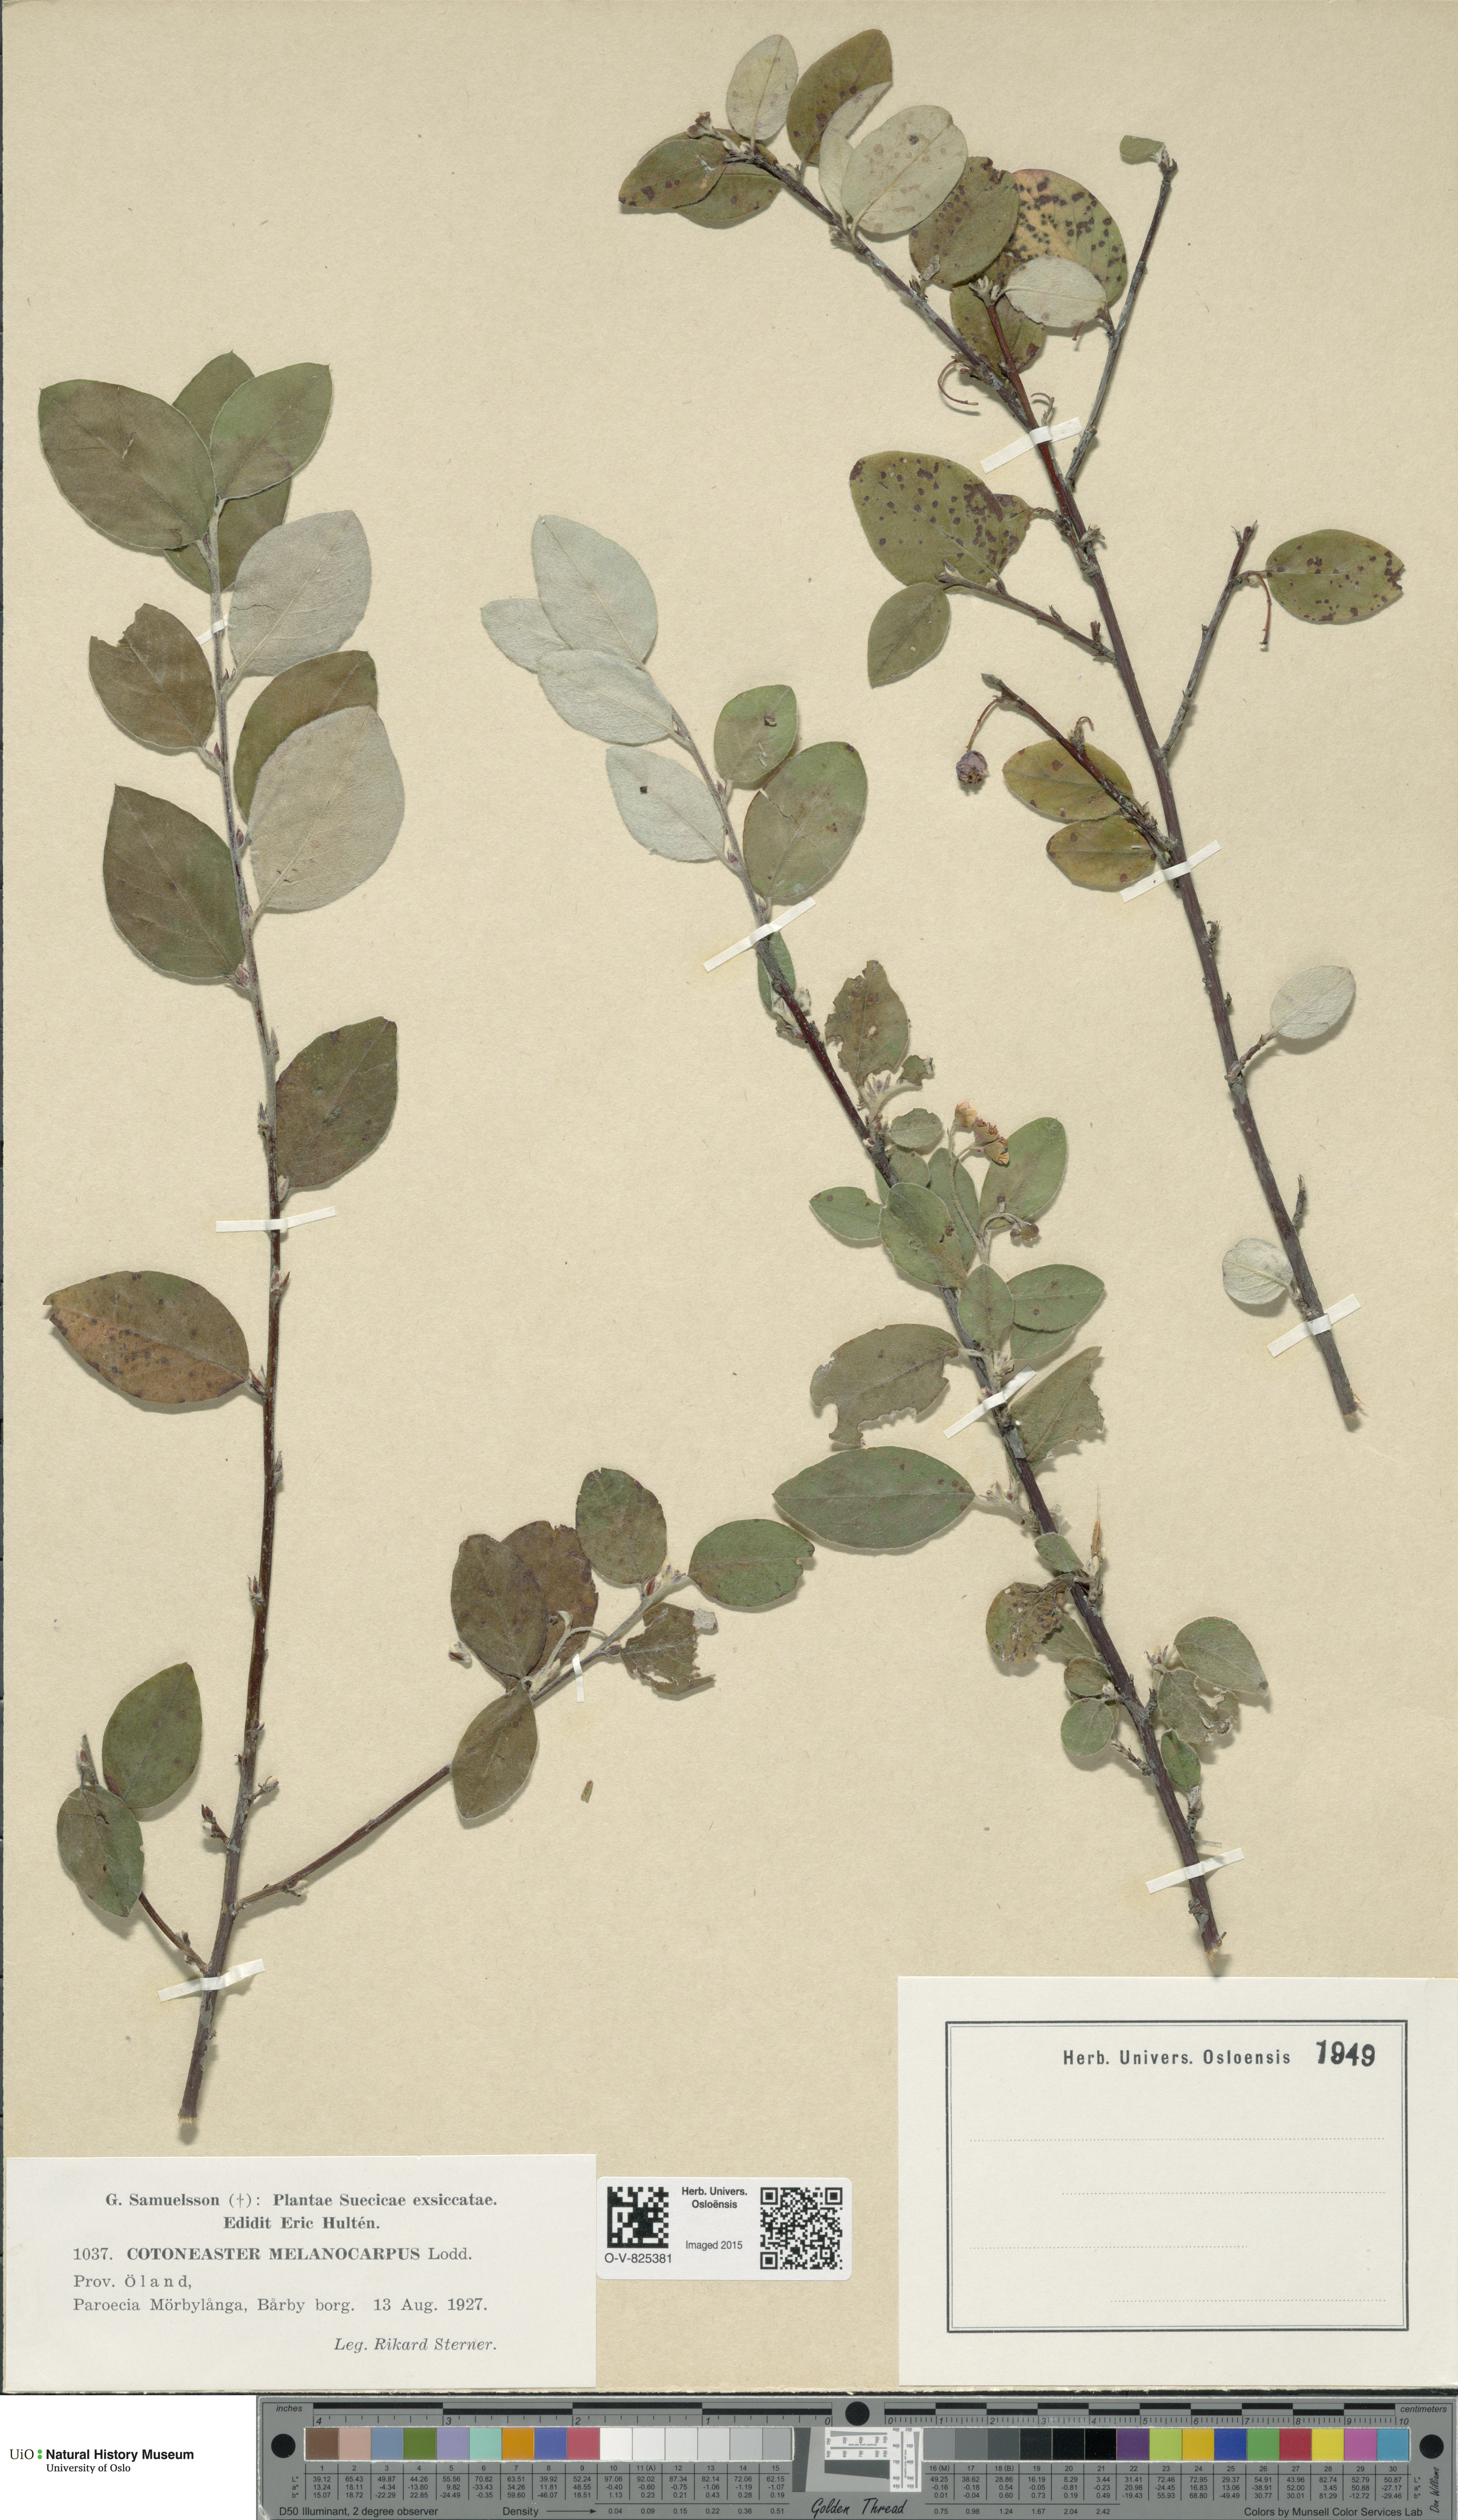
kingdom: Plantae
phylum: Tracheophyta
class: Magnoliopsida
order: Rosales
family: Rosaceae
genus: Cotoneaster
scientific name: Cotoneaster niger
